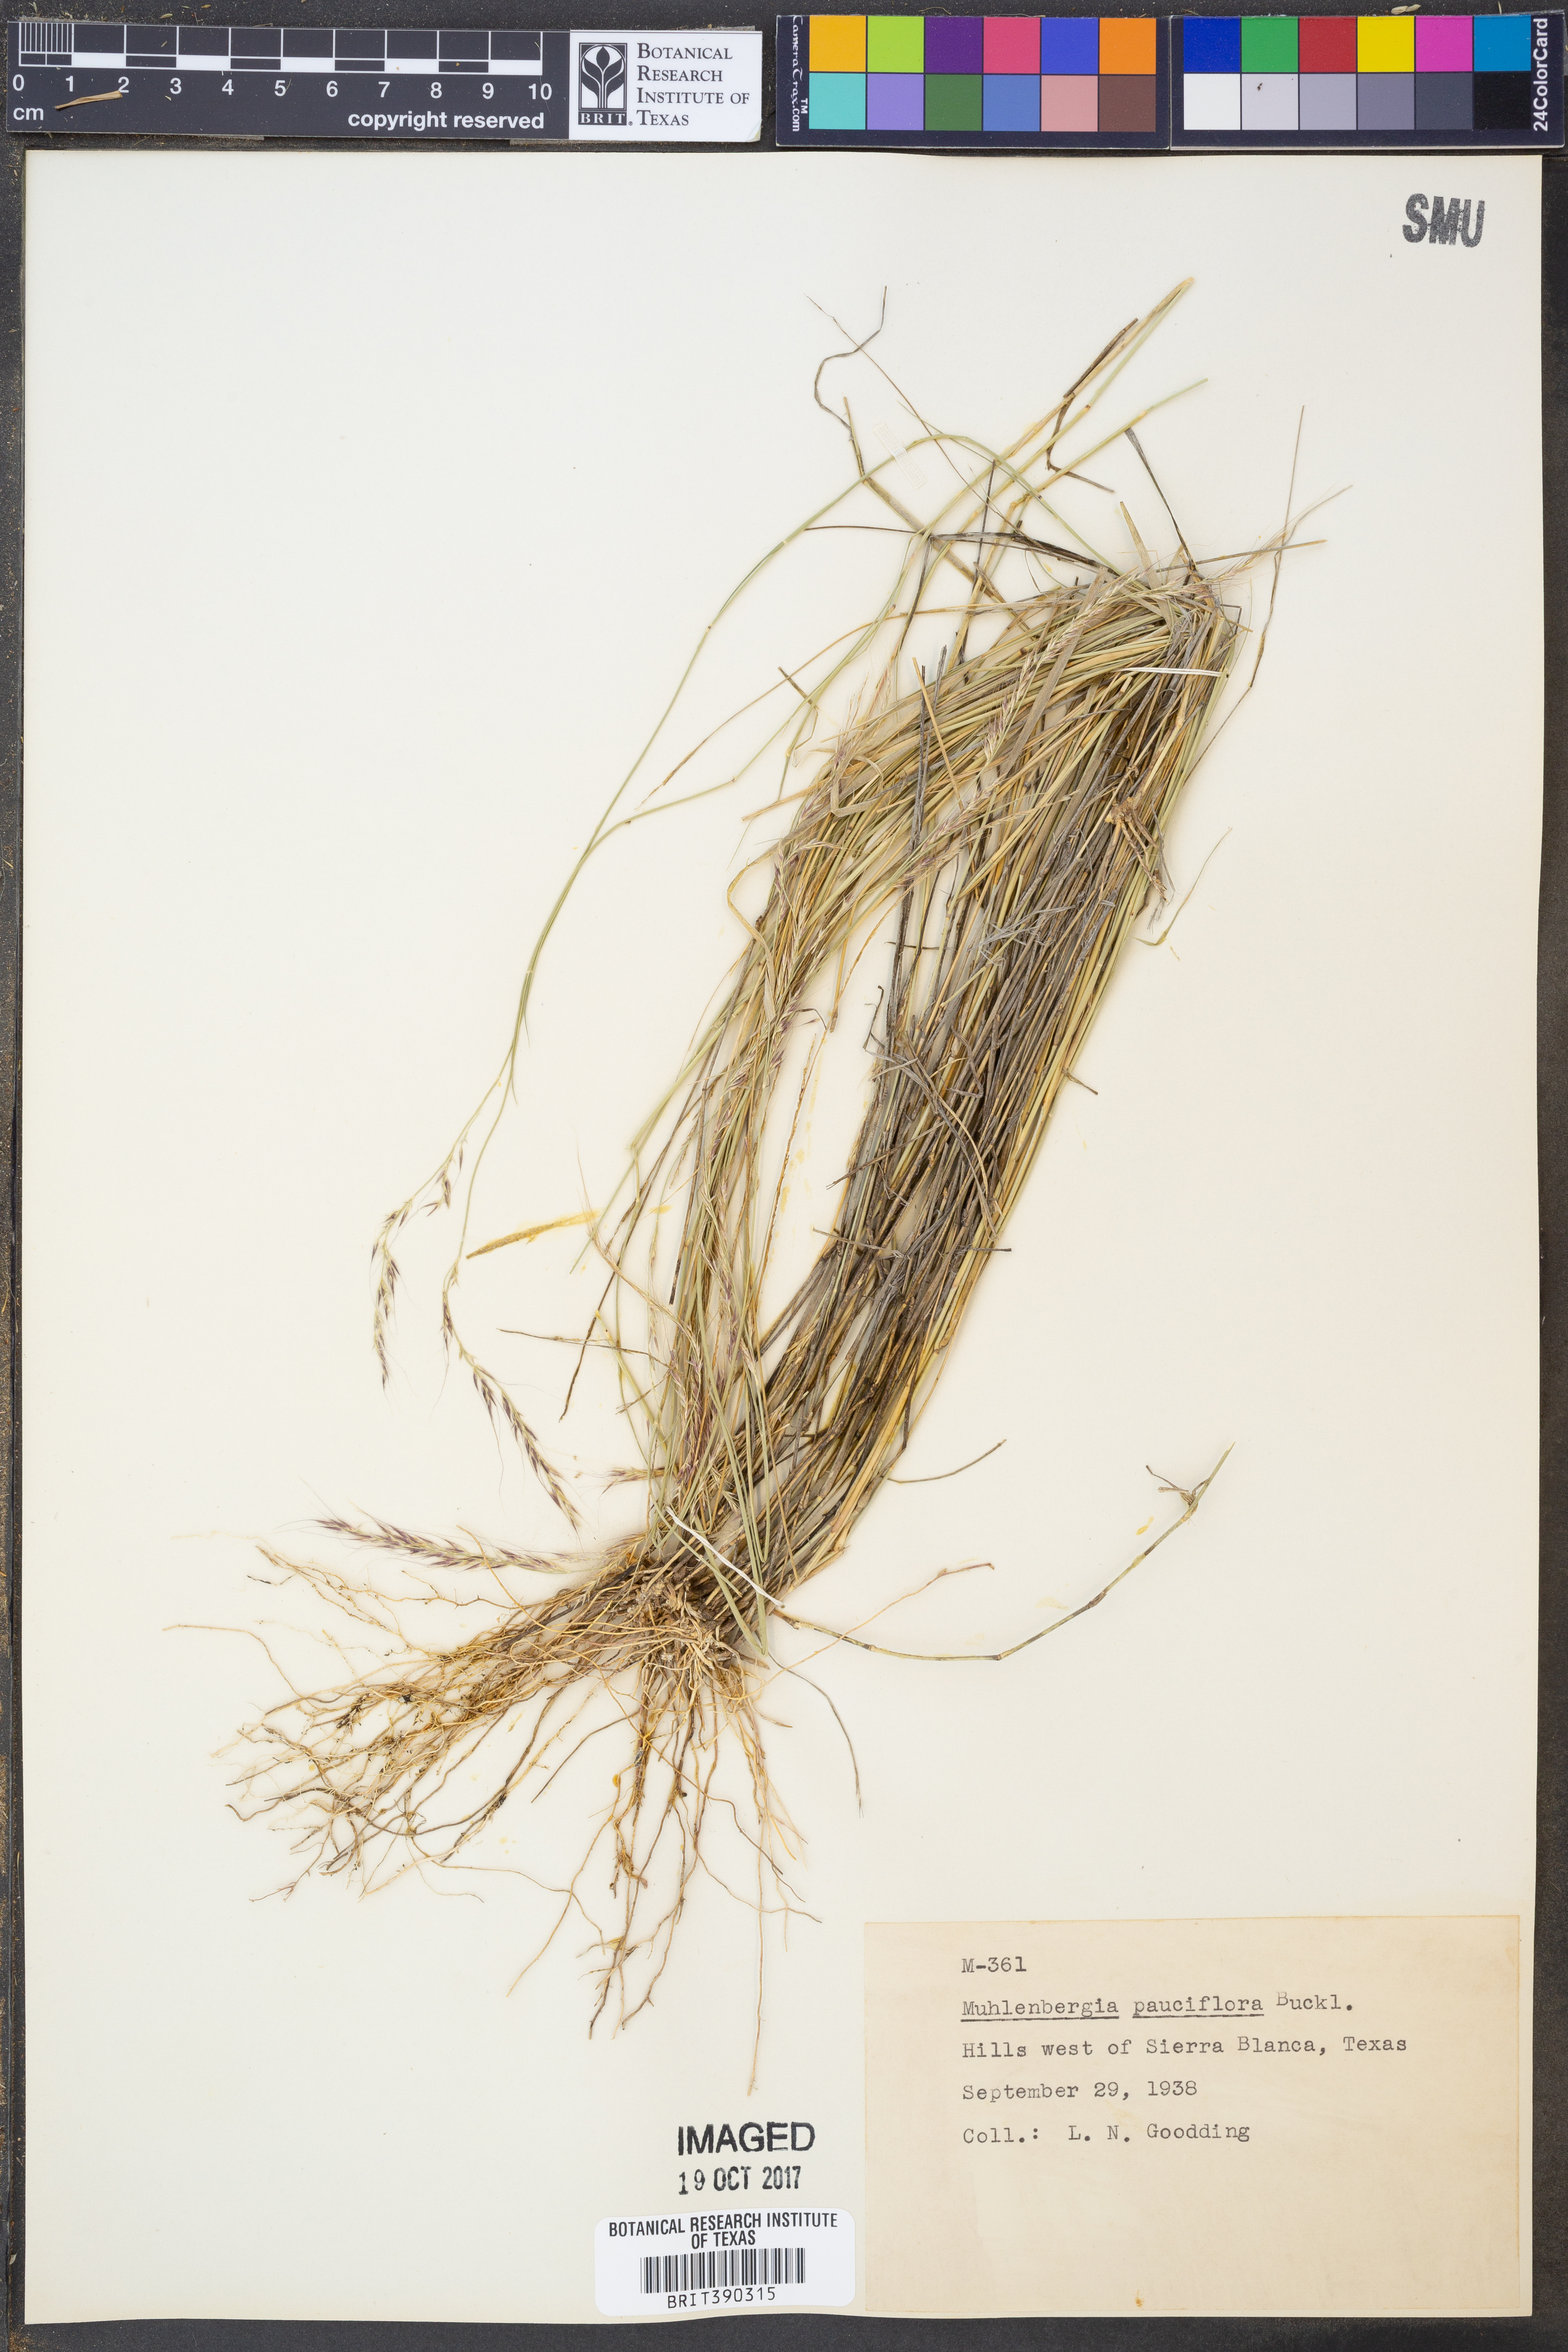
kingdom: Plantae
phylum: Tracheophyta
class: Liliopsida
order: Poales
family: Poaceae
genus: Muhlenbergia
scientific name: Muhlenbergia pauciflora
